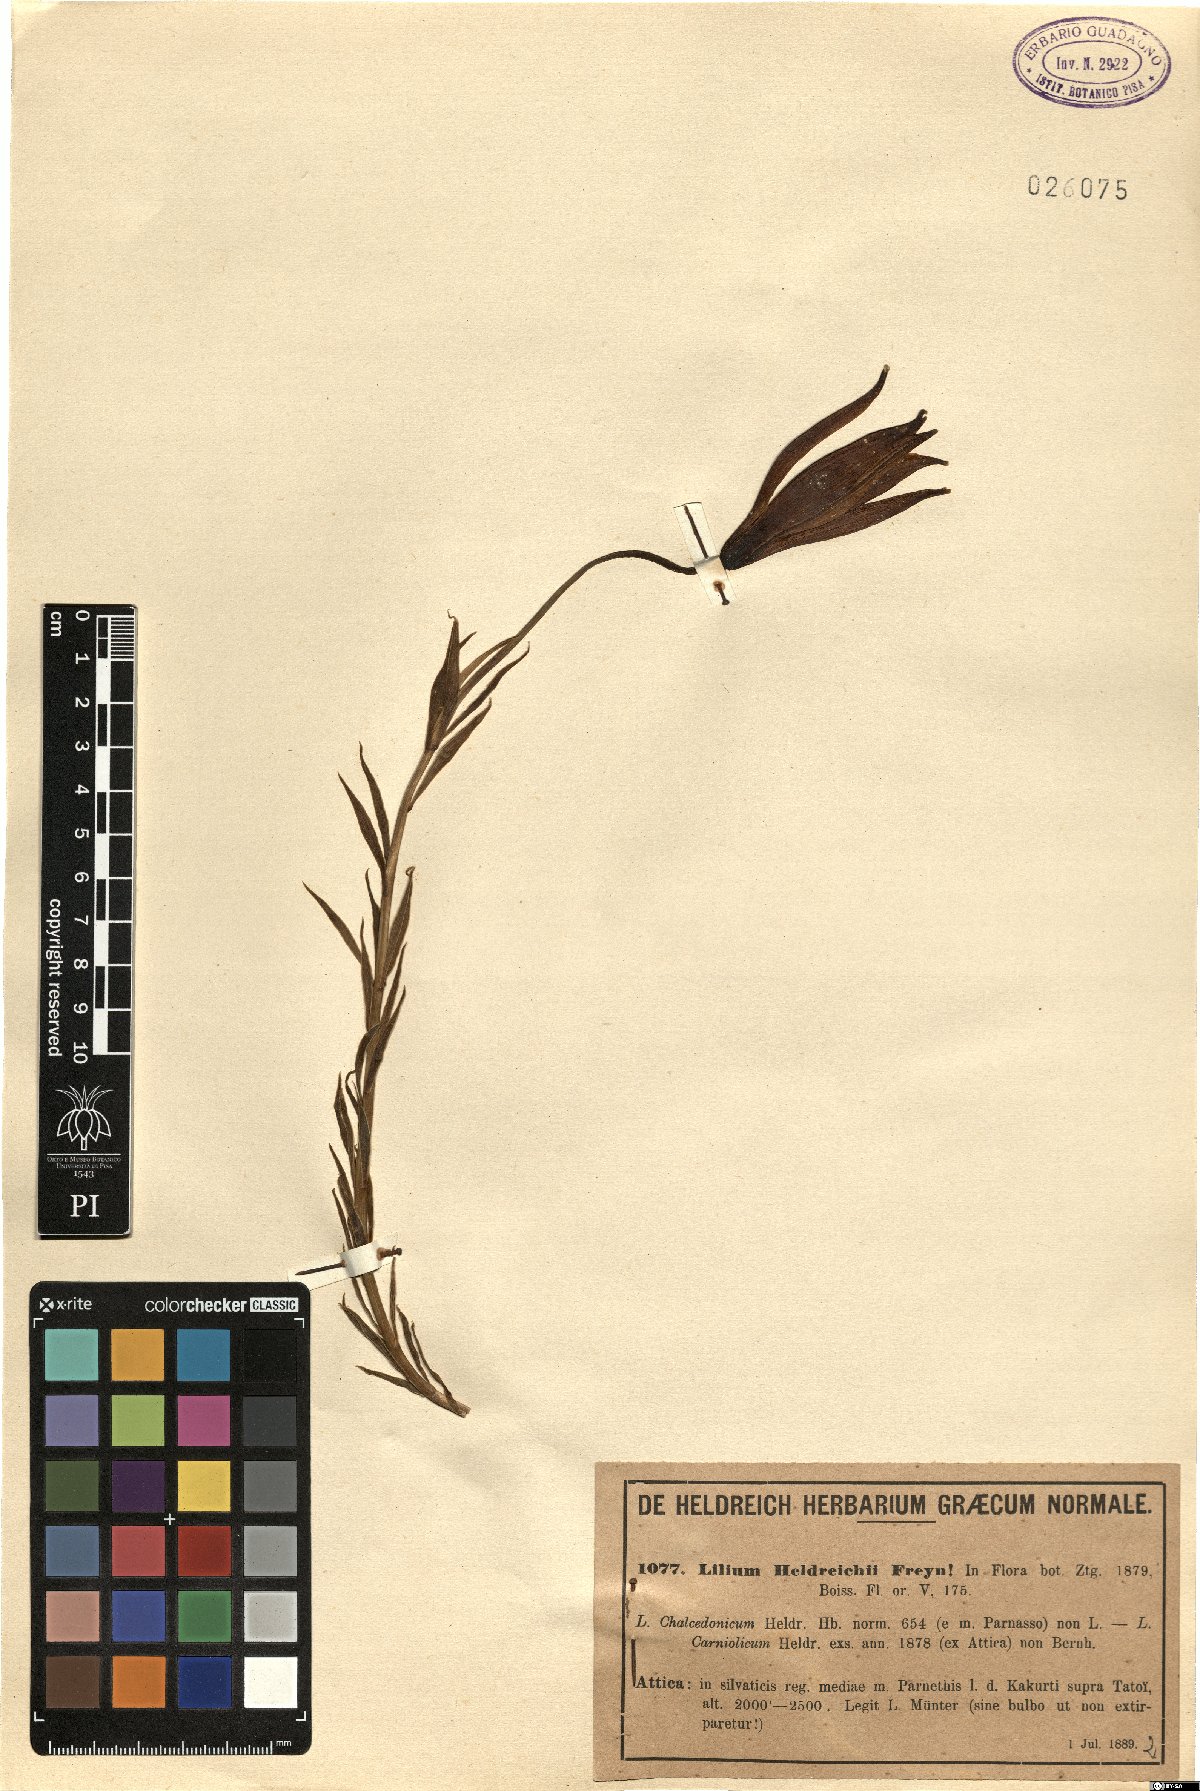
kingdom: Plantae
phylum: Tracheophyta
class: Liliopsida
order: Liliales
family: Liliaceae
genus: Lilium
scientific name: Lilium chalcedonicum
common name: Red martagon of constantinople
